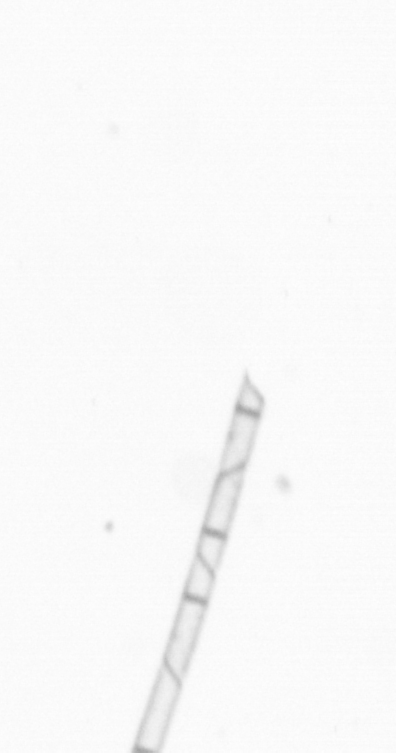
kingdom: Chromista
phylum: Ochrophyta
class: Bacillariophyceae
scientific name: Bacillariophyceae
